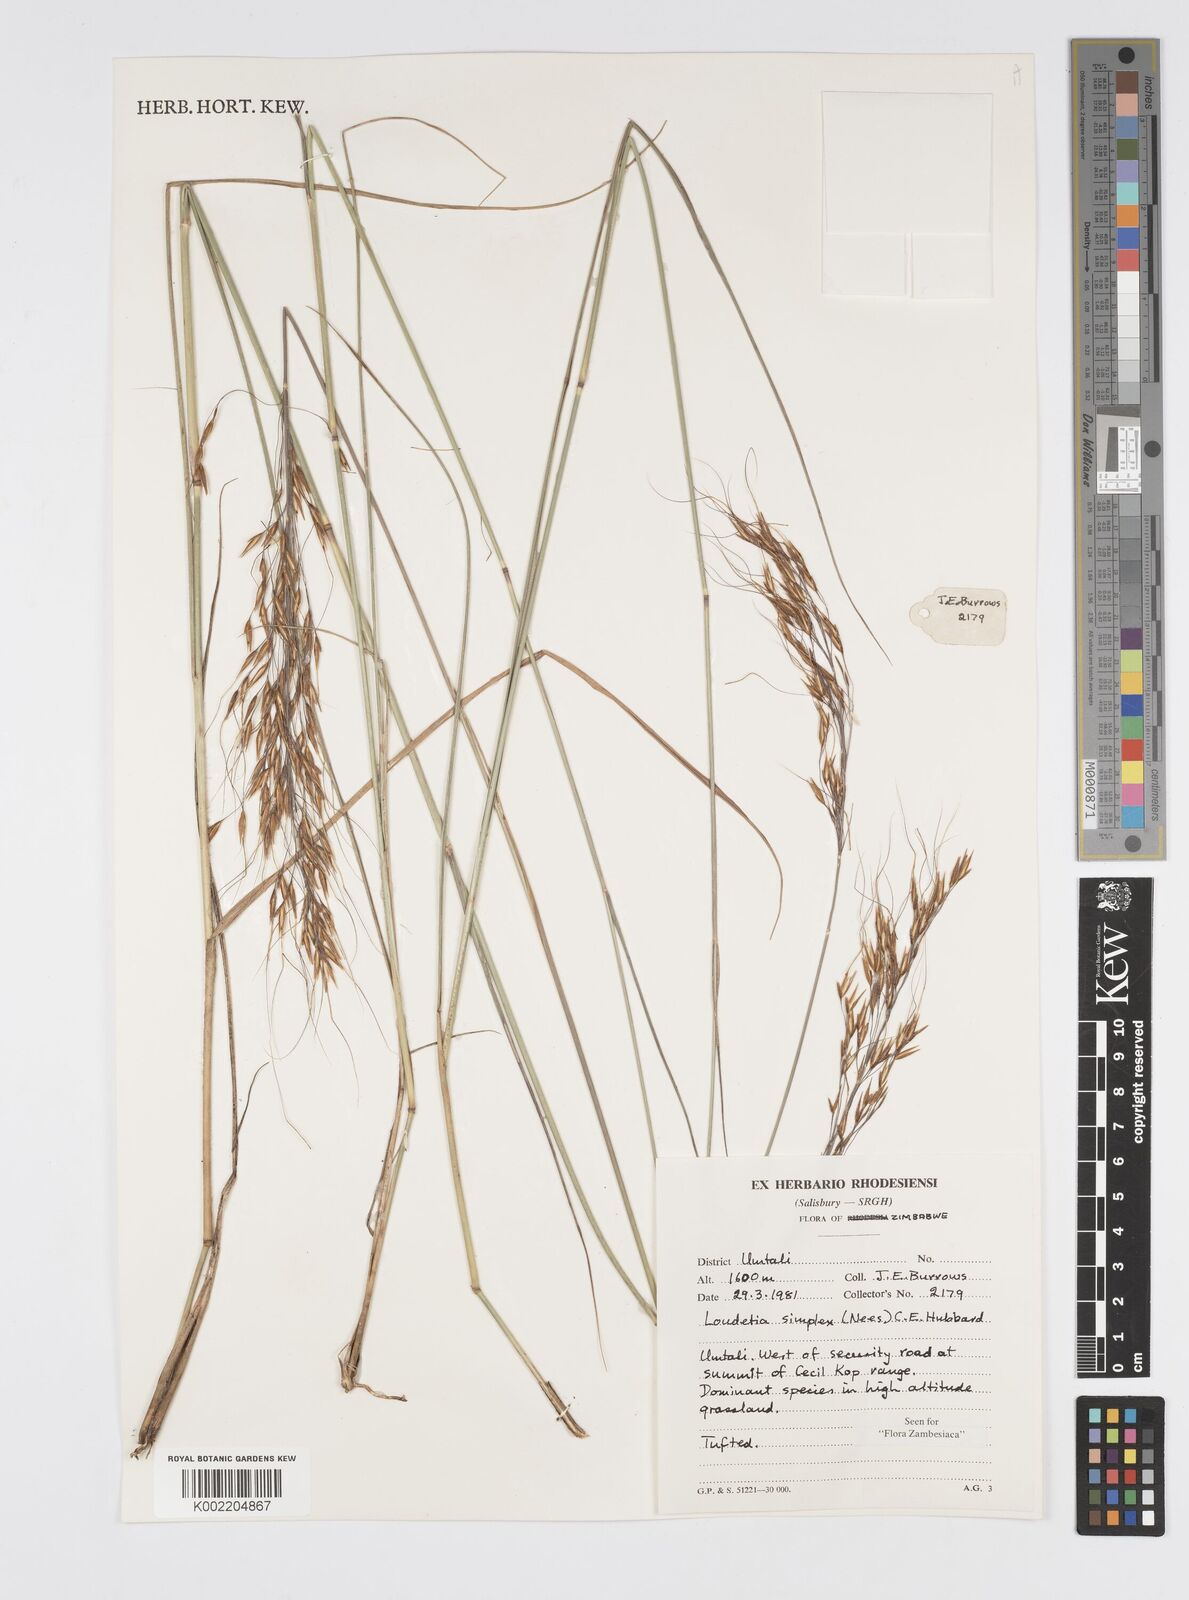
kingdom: Plantae
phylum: Tracheophyta
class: Liliopsida
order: Poales
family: Poaceae
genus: Loudetia
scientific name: Loudetia simplex
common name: Common russet grass
